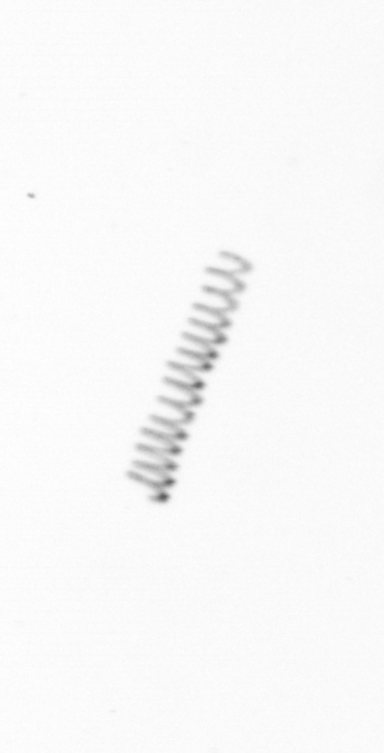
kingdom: Animalia
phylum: Arthropoda
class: Copepoda
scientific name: Copepoda
